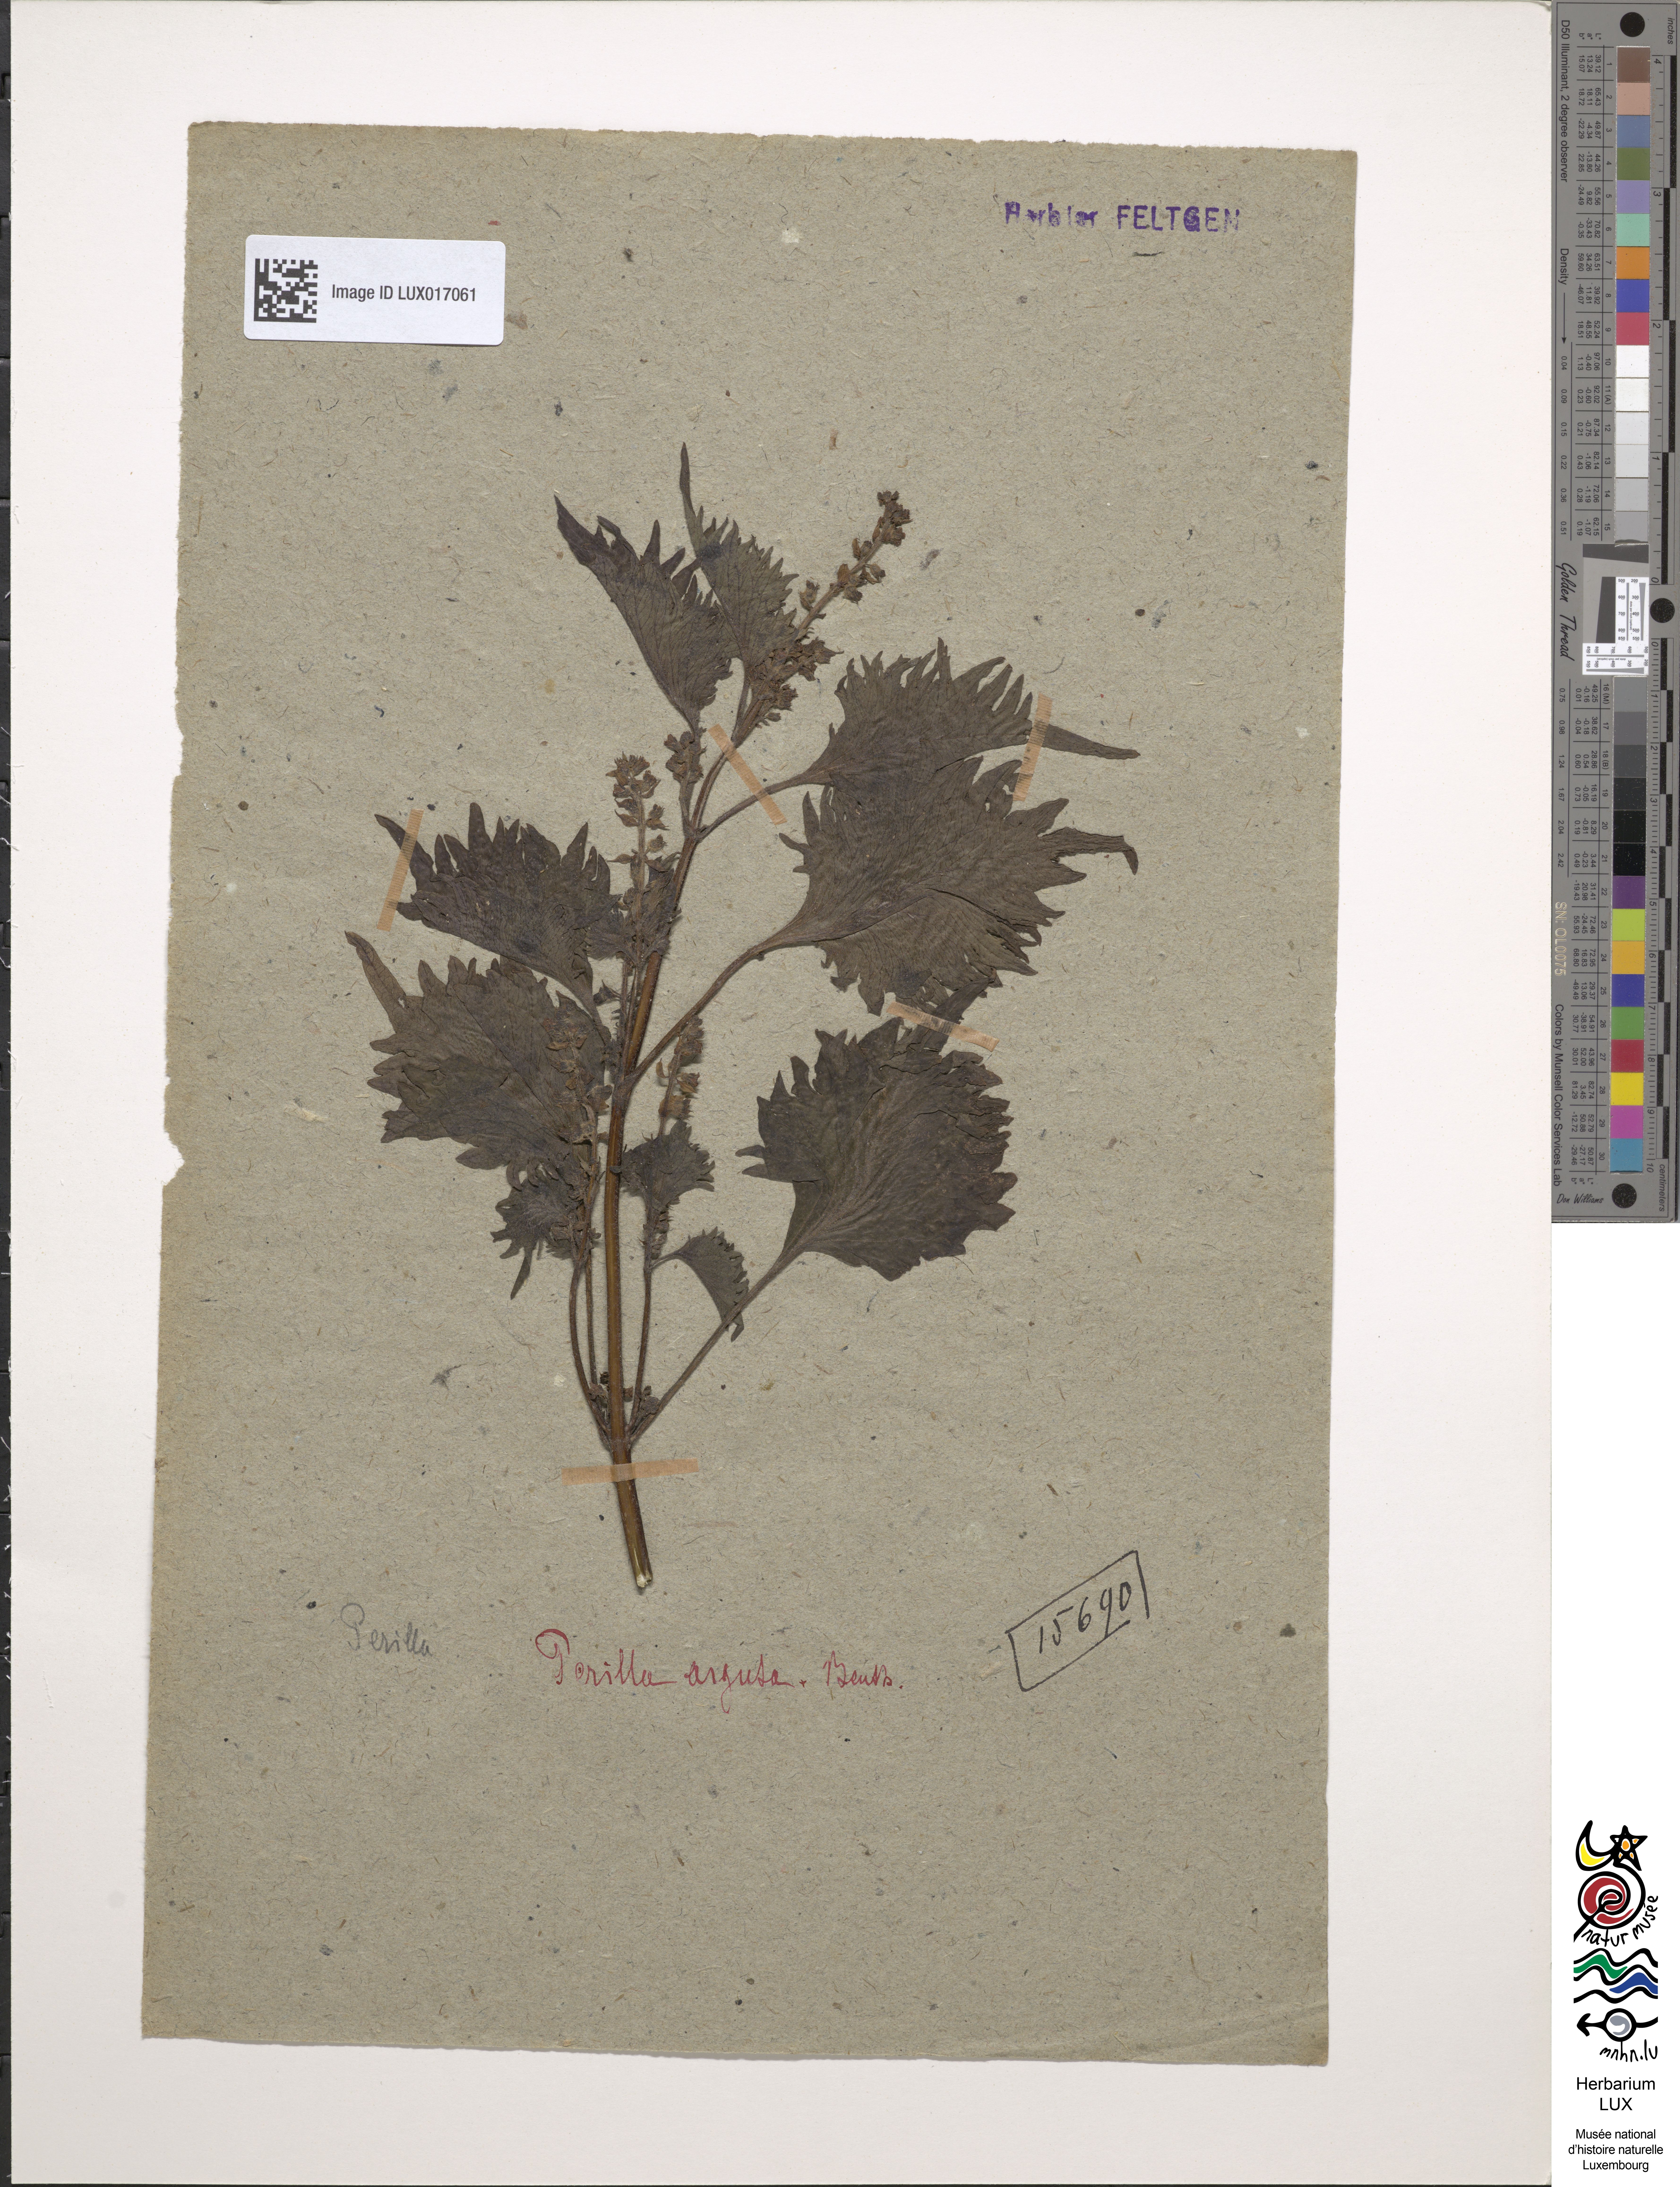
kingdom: Plantae
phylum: Tracheophyta
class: Magnoliopsida
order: Lamiales
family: Lamiaceae
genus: Perilla
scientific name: Perilla frutescens
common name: Perilla
